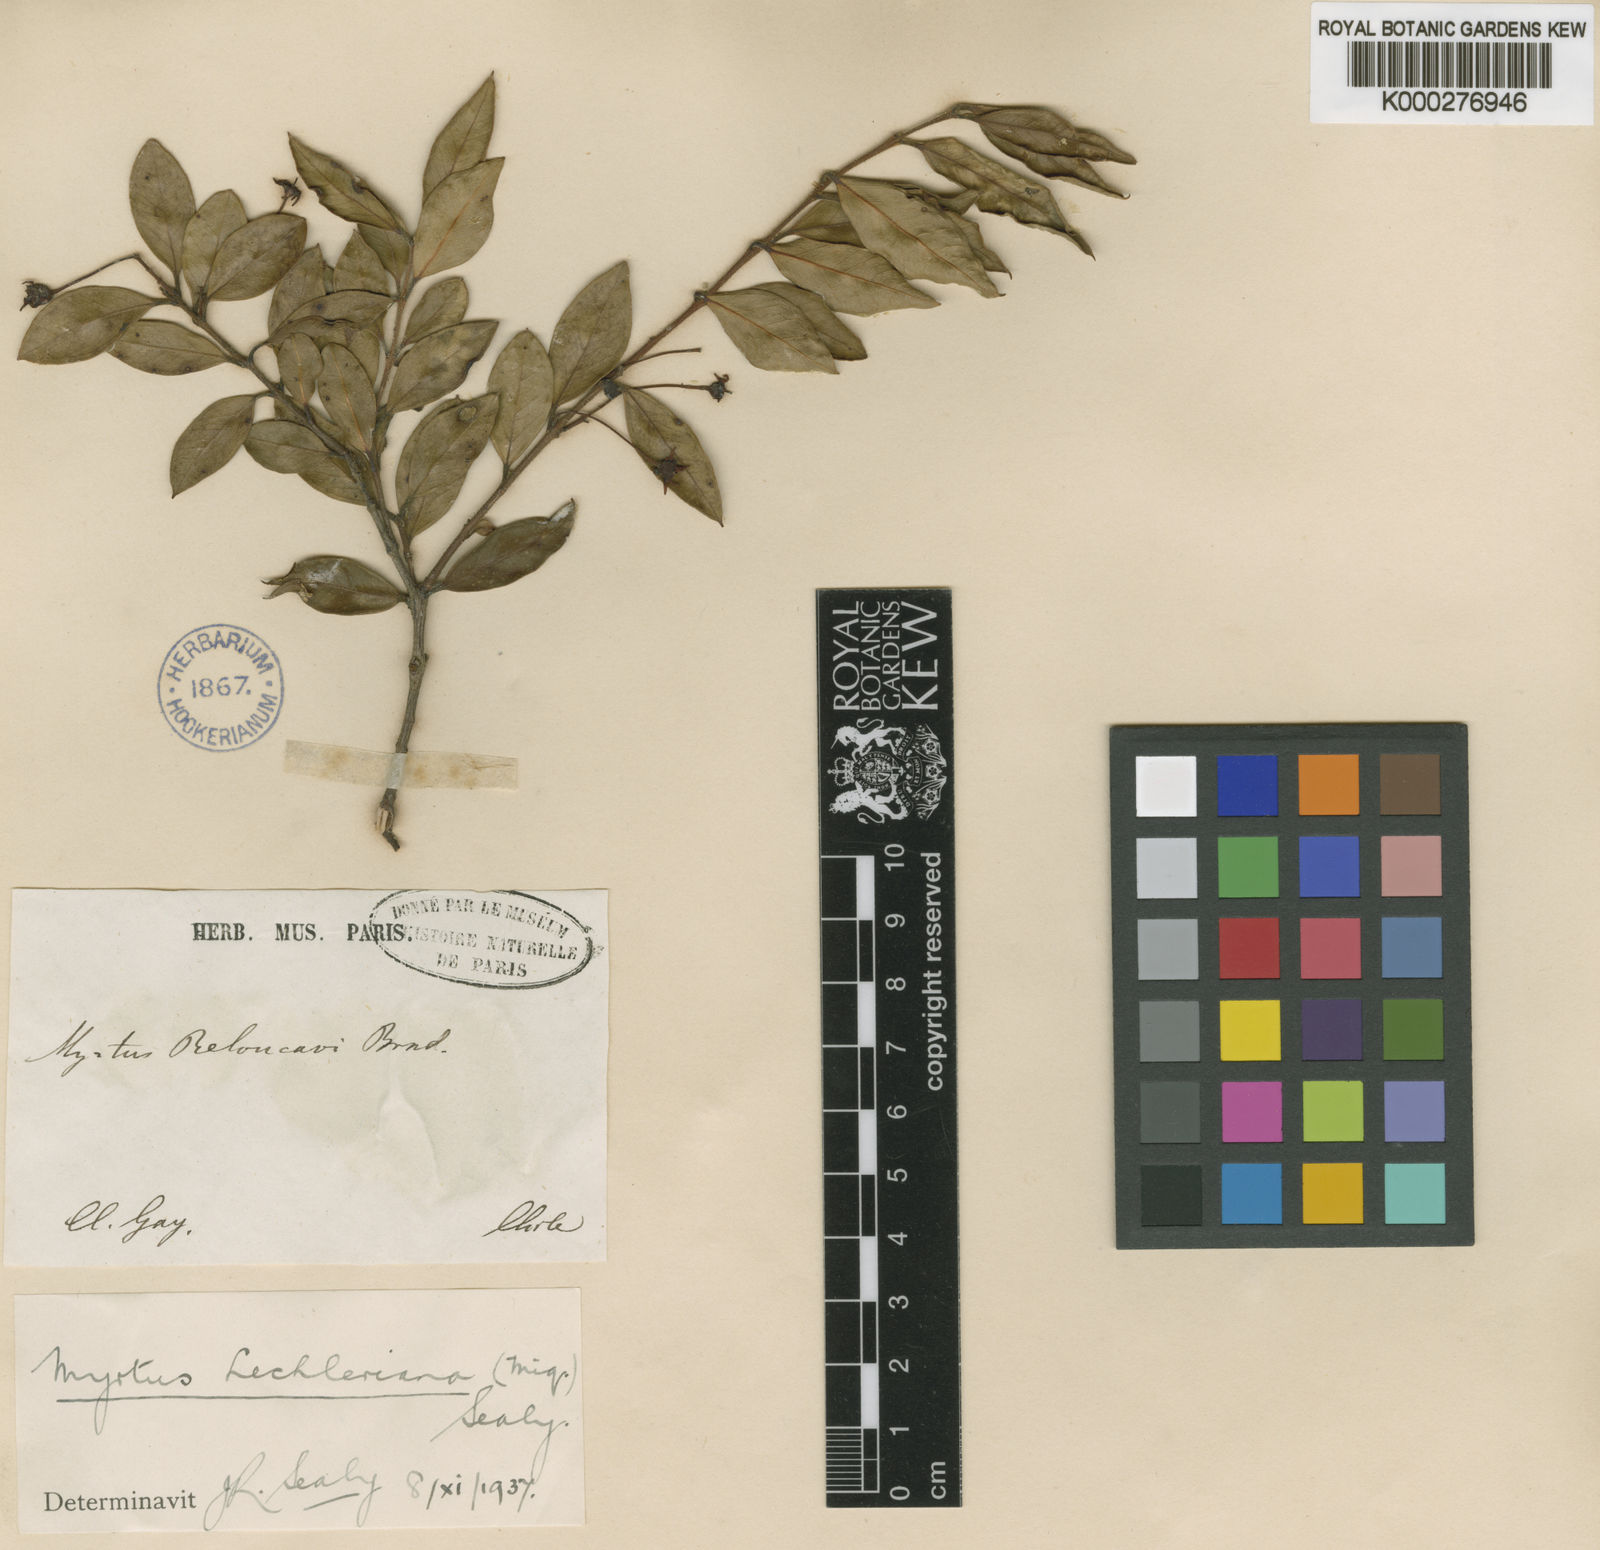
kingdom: Plantae
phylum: Tracheophyta
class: Magnoliopsida
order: Myrtales
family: Myrtaceae
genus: Amomyrtus
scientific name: Amomyrtus luma
